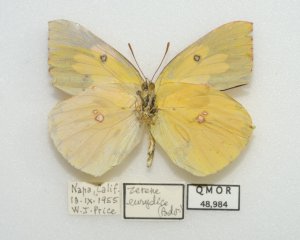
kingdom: Animalia
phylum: Arthropoda
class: Insecta
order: Lepidoptera
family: Pieridae
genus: Zerene
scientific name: Zerene eurydice
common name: California Dogface
